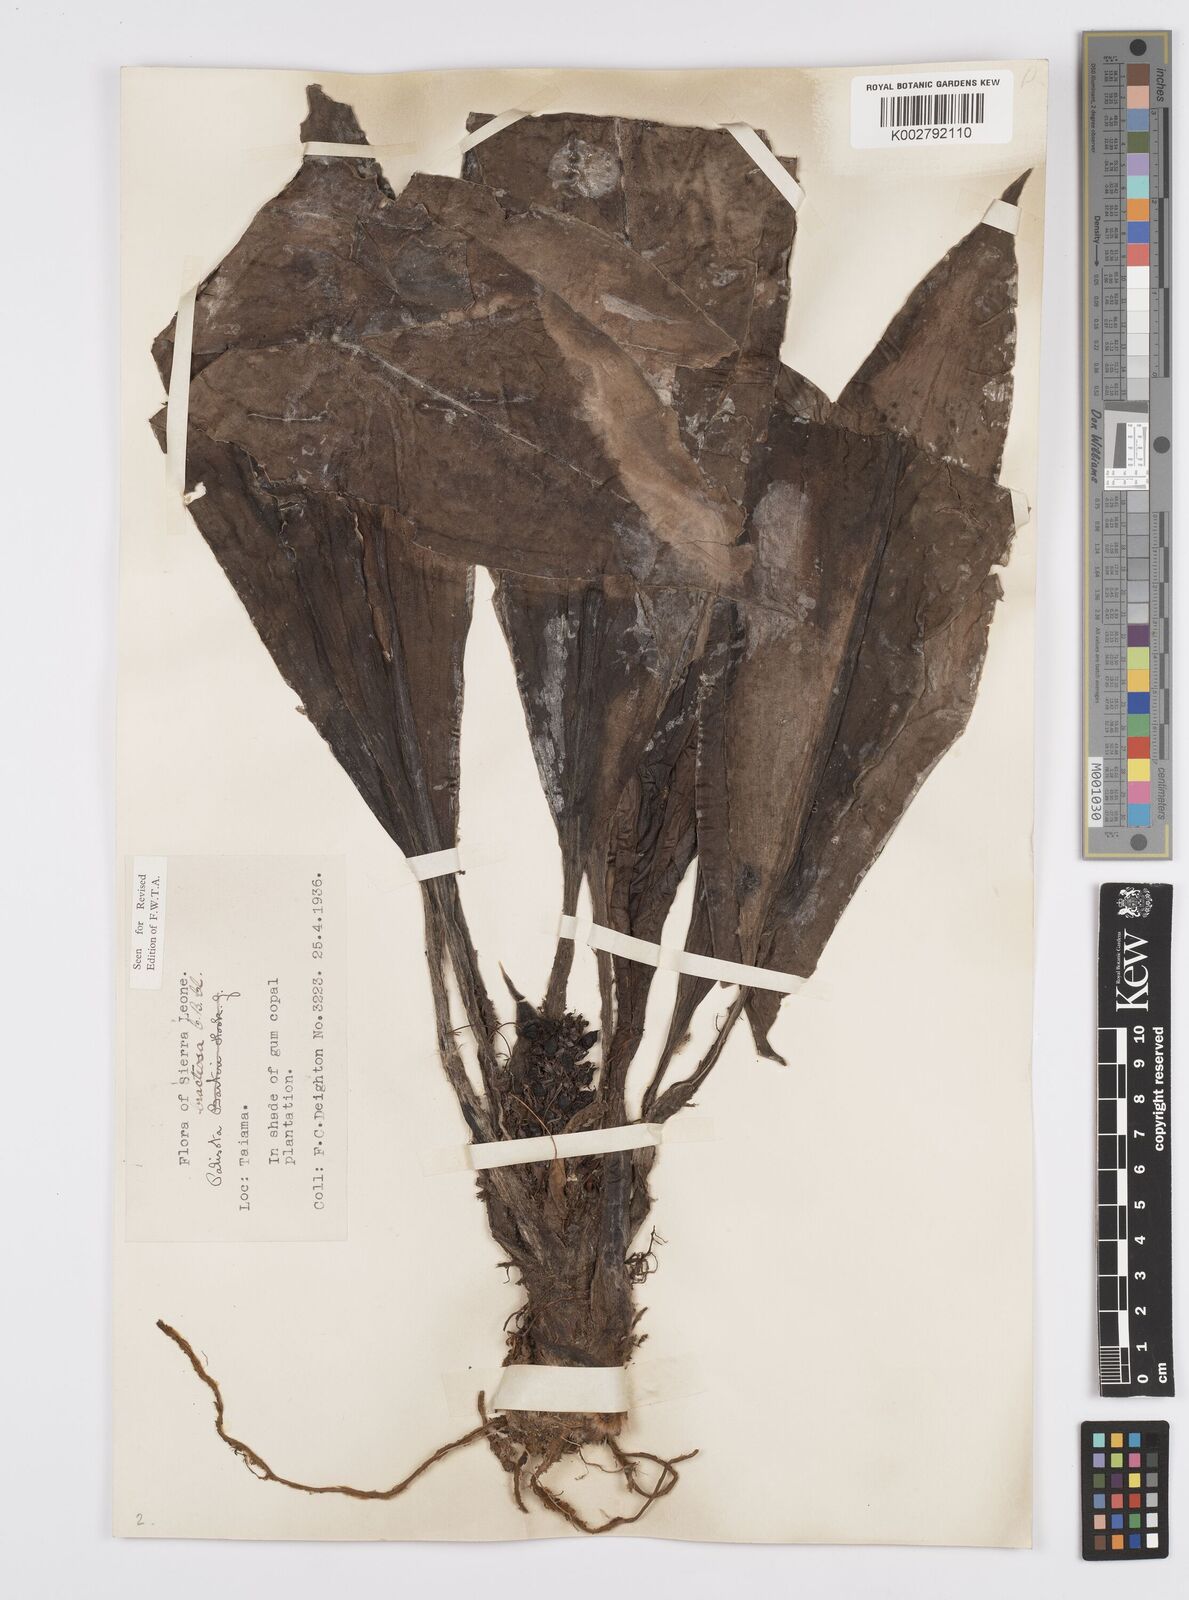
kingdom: Plantae
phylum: Tracheophyta
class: Liliopsida
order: Commelinales
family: Commelinaceae
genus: Palisota
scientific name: Palisota bracteosa
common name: Palisota
